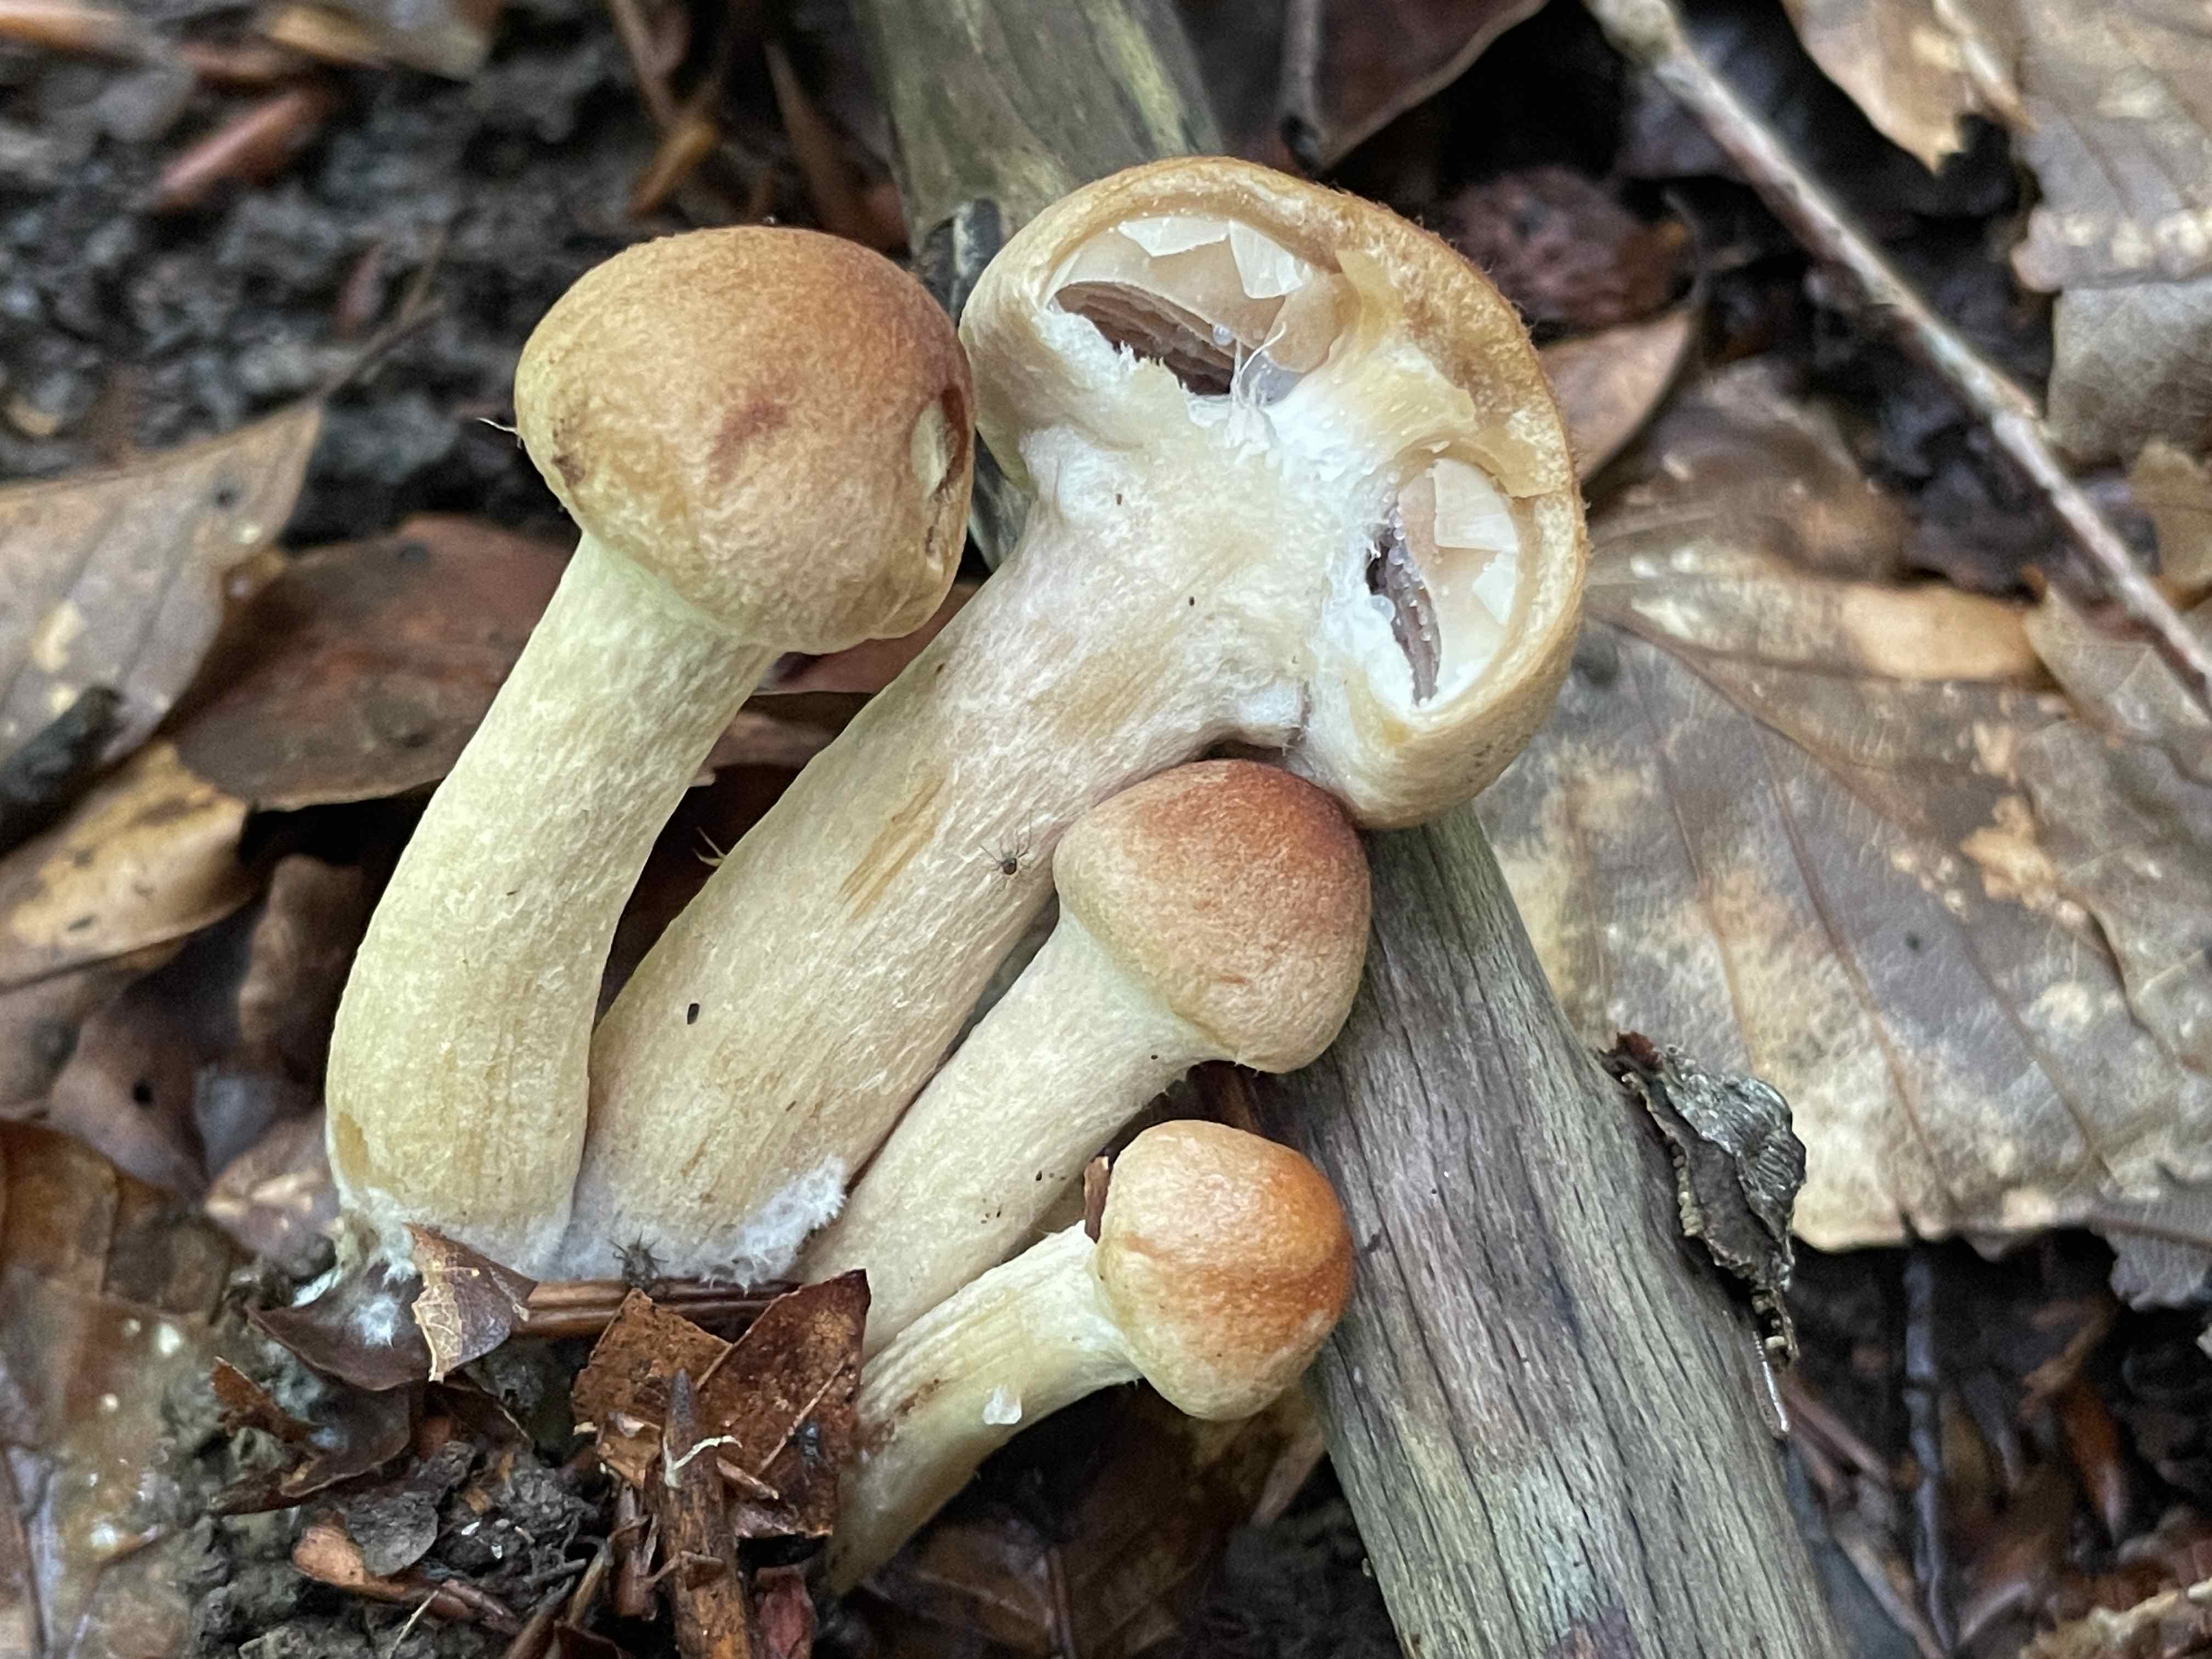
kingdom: Fungi
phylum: Basidiomycota
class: Agaricomycetes
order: Agaricales
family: Psathyrellaceae
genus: Lacrymaria
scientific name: Lacrymaria lacrymabunda
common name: grædende mørkhat
